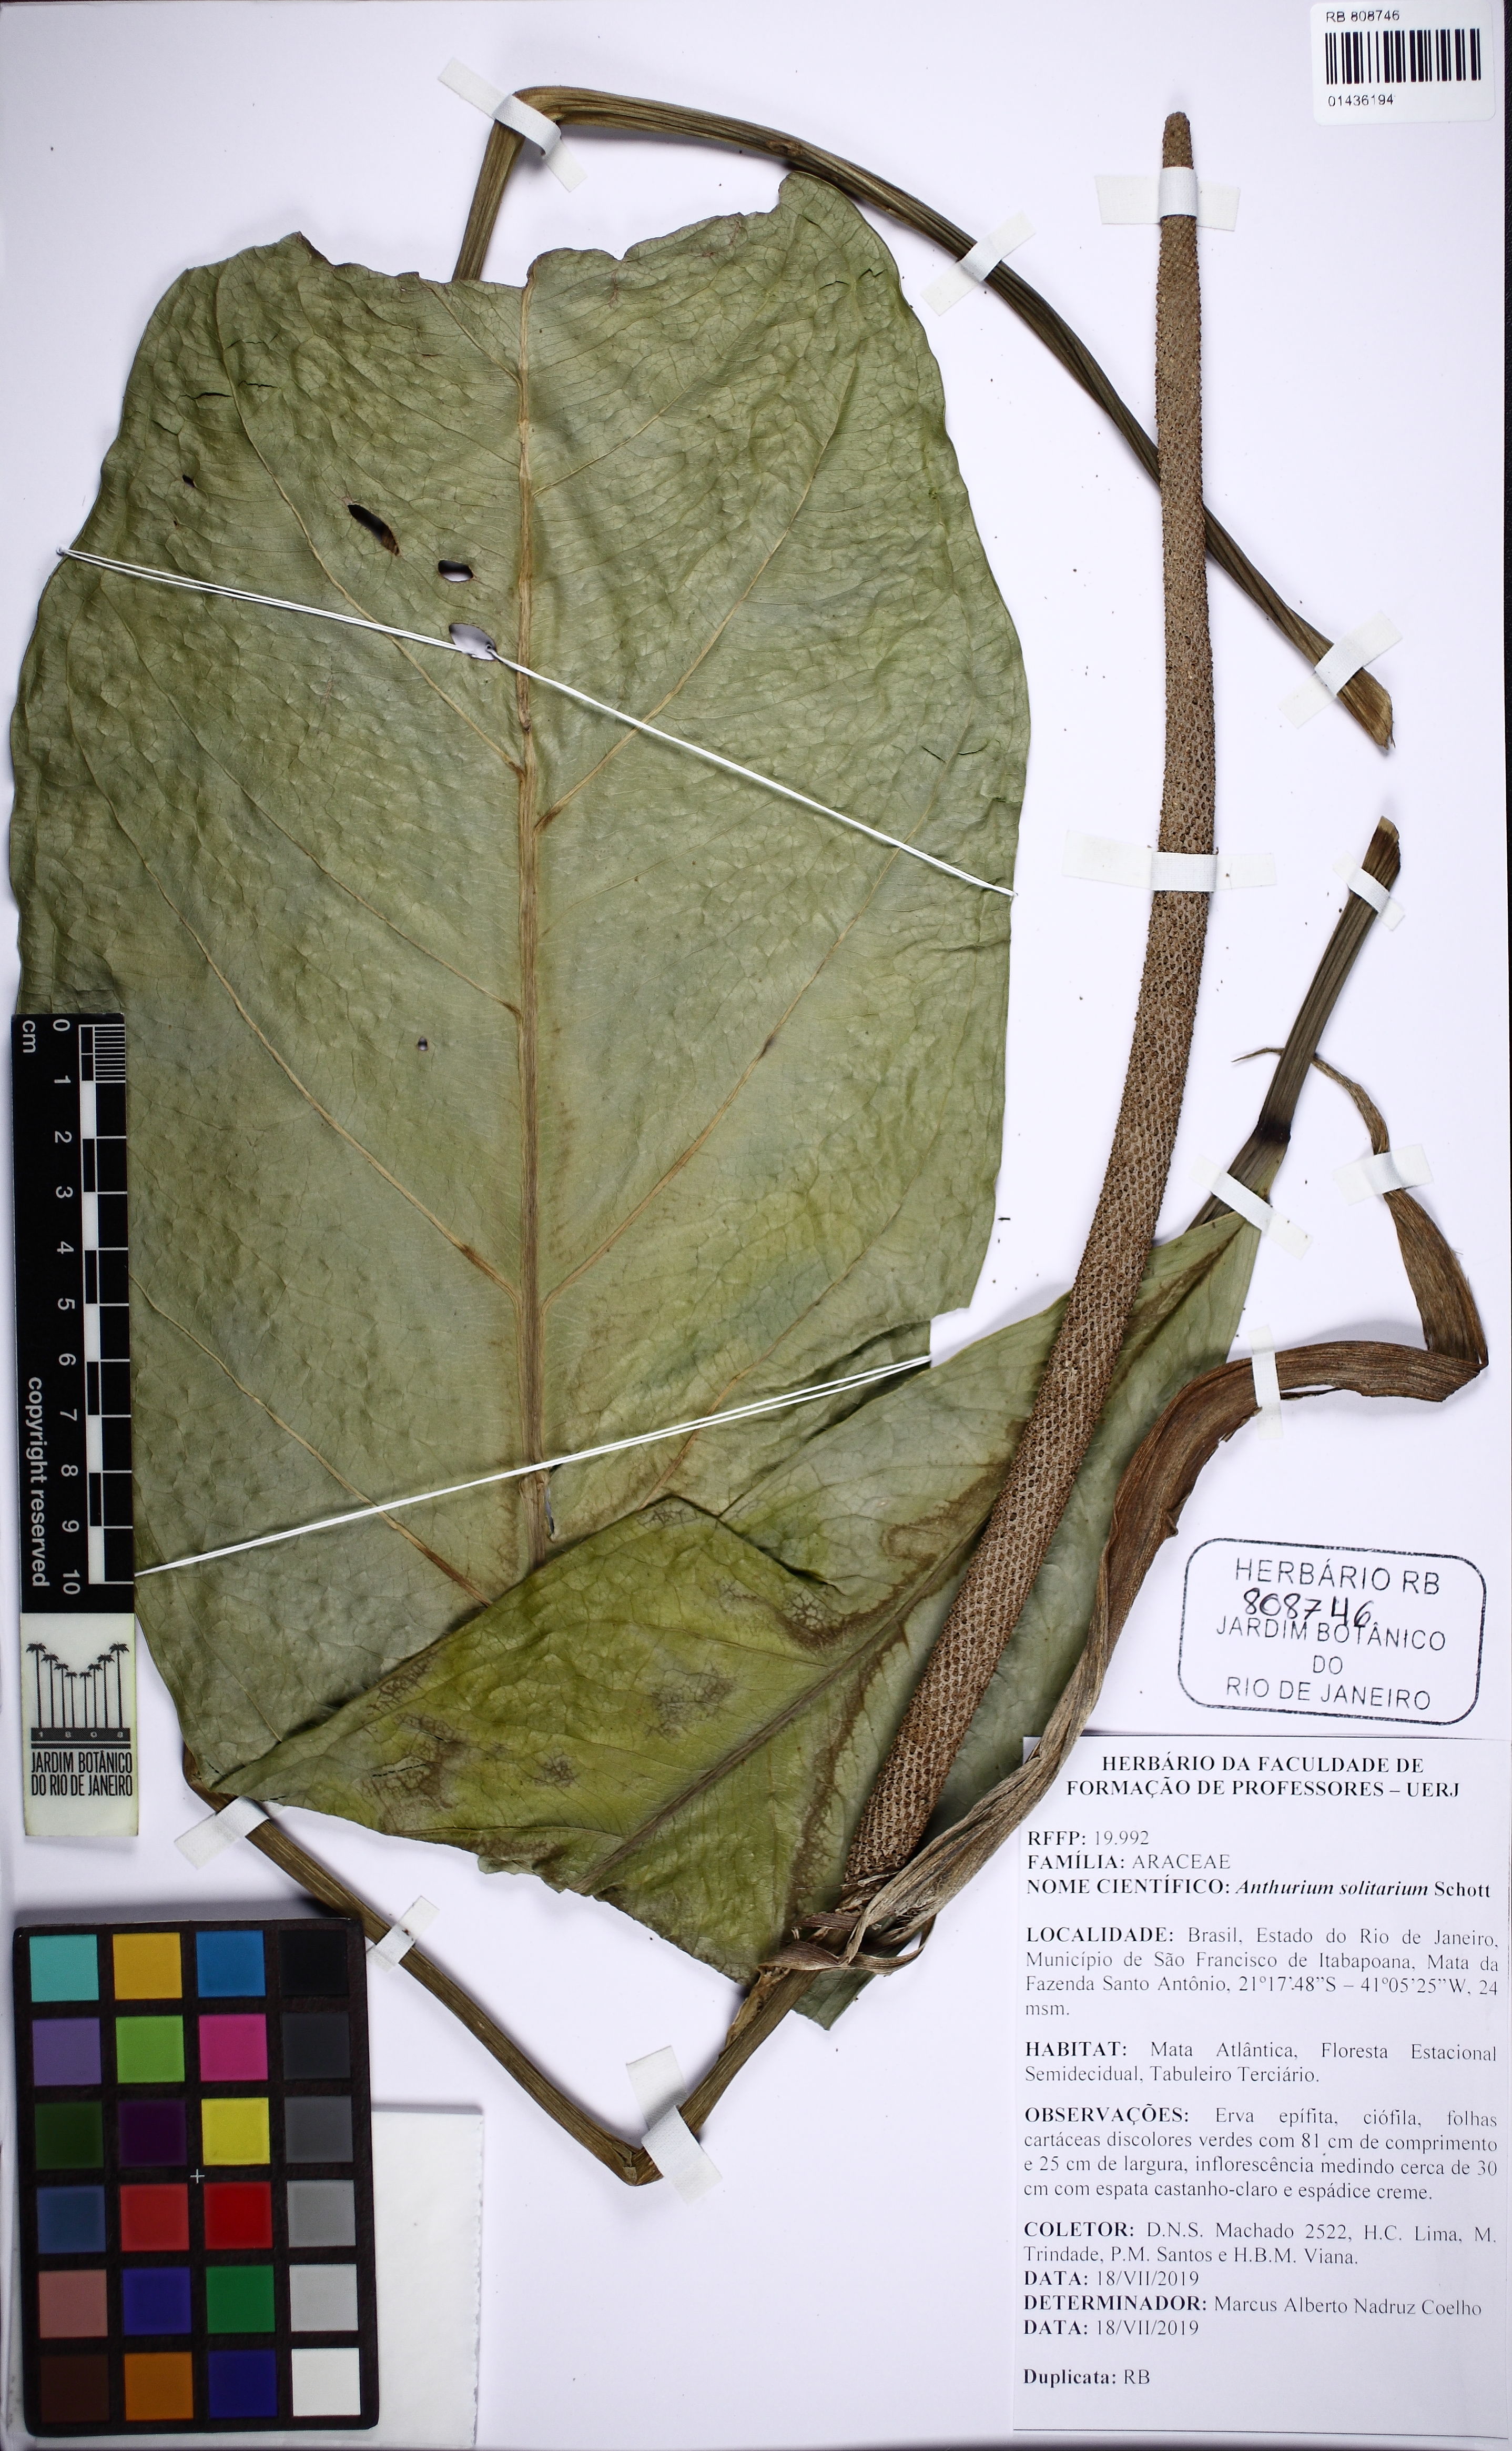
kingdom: Plantae
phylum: Tracheophyta
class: Liliopsida
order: Alismatales
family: Araceae
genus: Anthurium
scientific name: Anthurium solitarium
